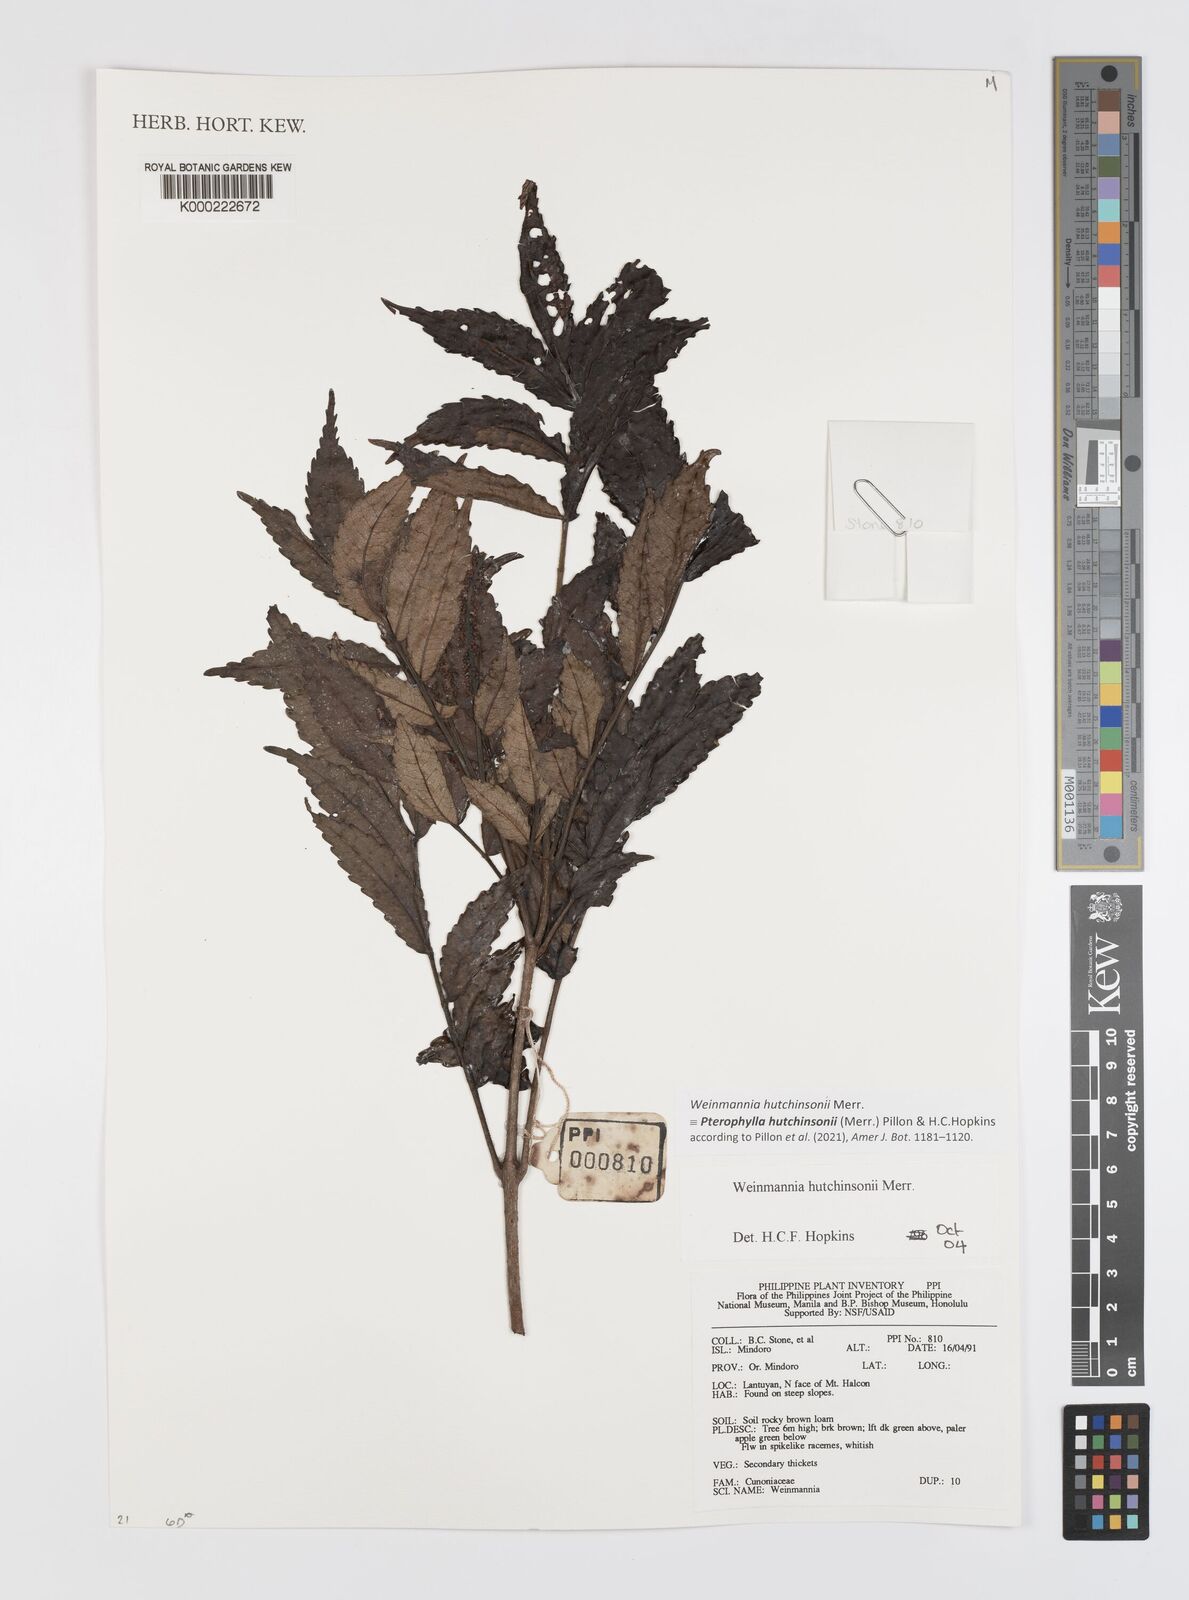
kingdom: Plantae
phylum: Tracheophyta
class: Magnoliopsida
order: Oxalidales
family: Cunoniaceae
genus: Pterophylla
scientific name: Pterophylla hutchinsonii
